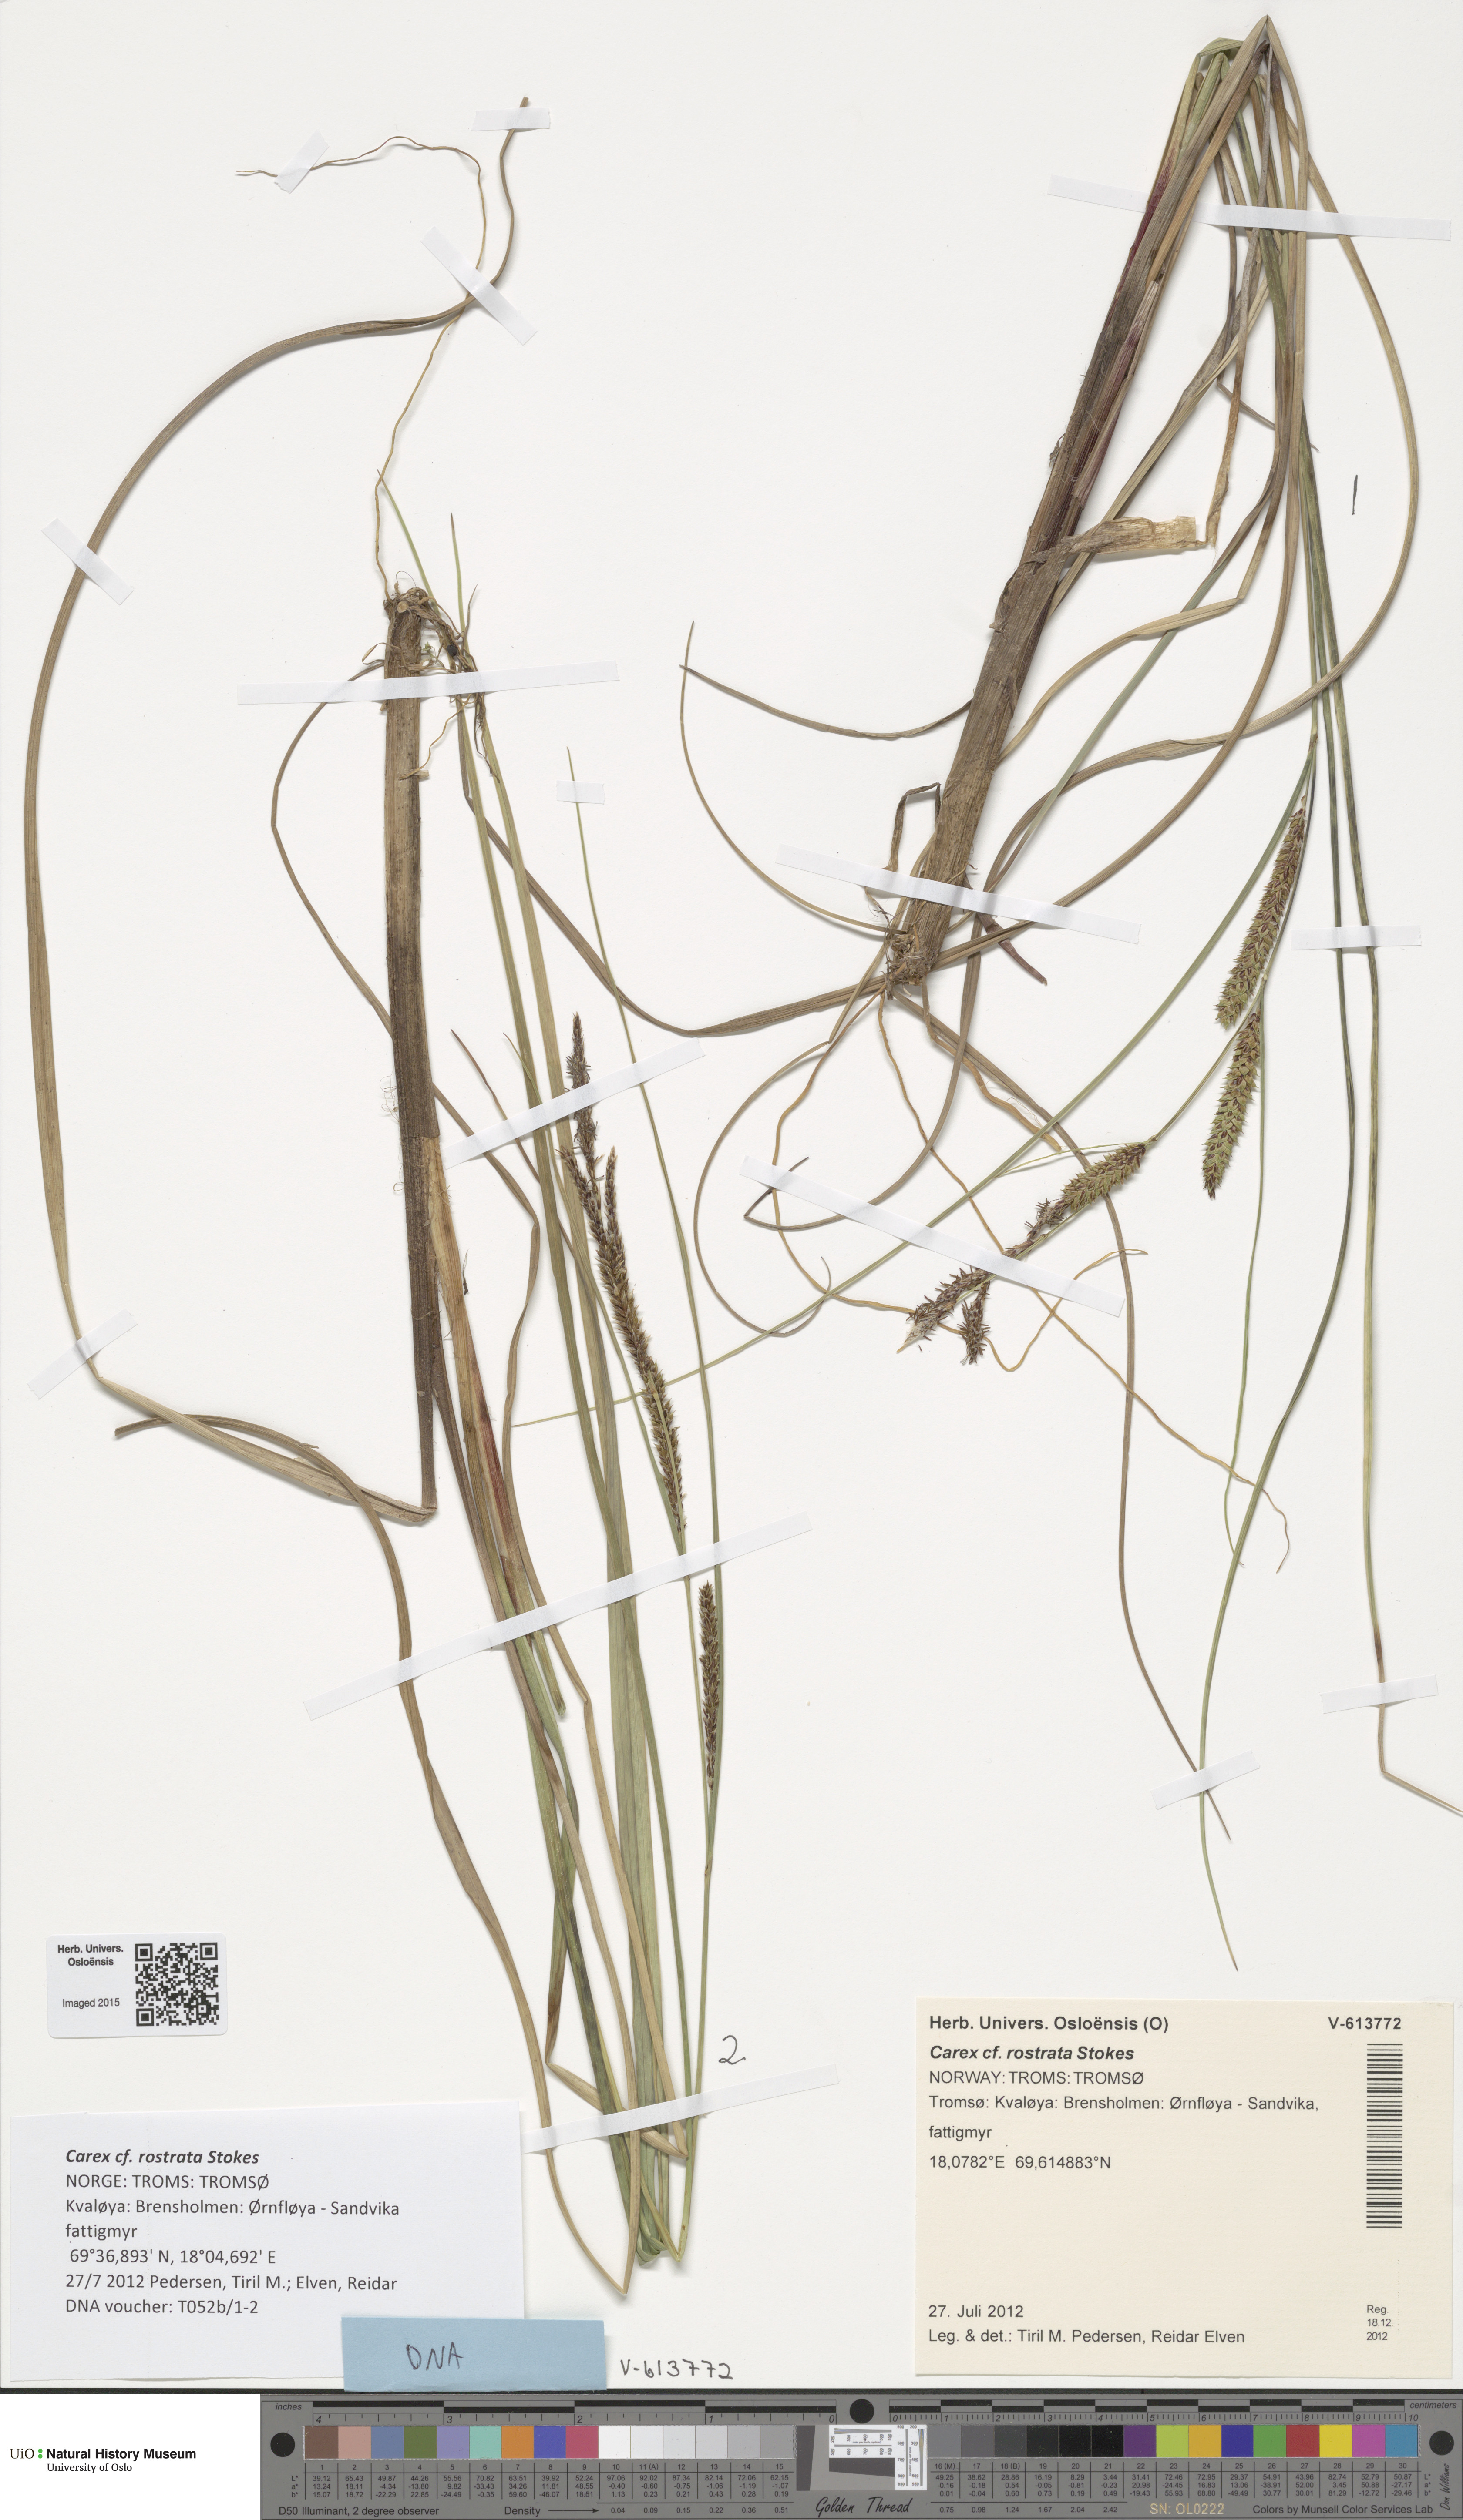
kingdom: Plantae
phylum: Tracheophyta
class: Liliopsida
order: Poales
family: Cyperaceae
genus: Carex
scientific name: Carex rostrata
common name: Bottle sedge
